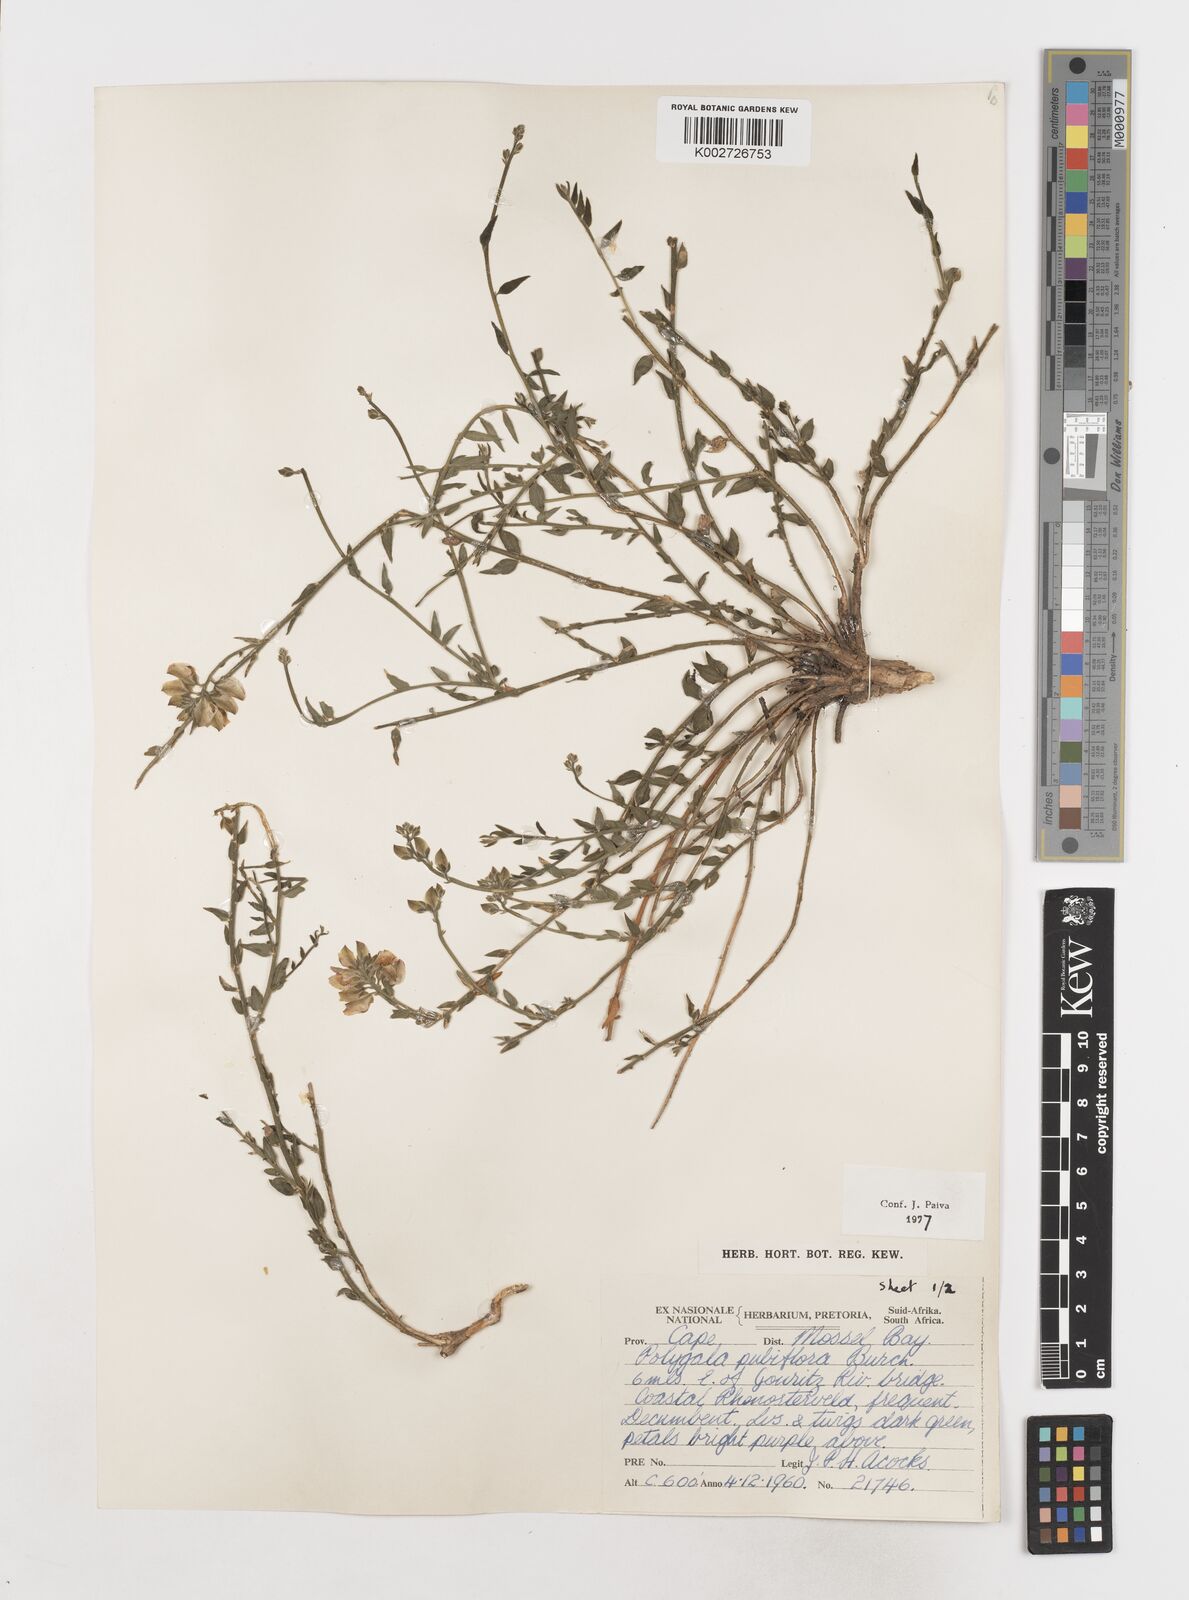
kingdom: Plantae
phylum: Tracheophyta
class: Magnoliopsida
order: Fabales
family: Polygalaceae
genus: Polygala
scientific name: Polygala pubiflora
